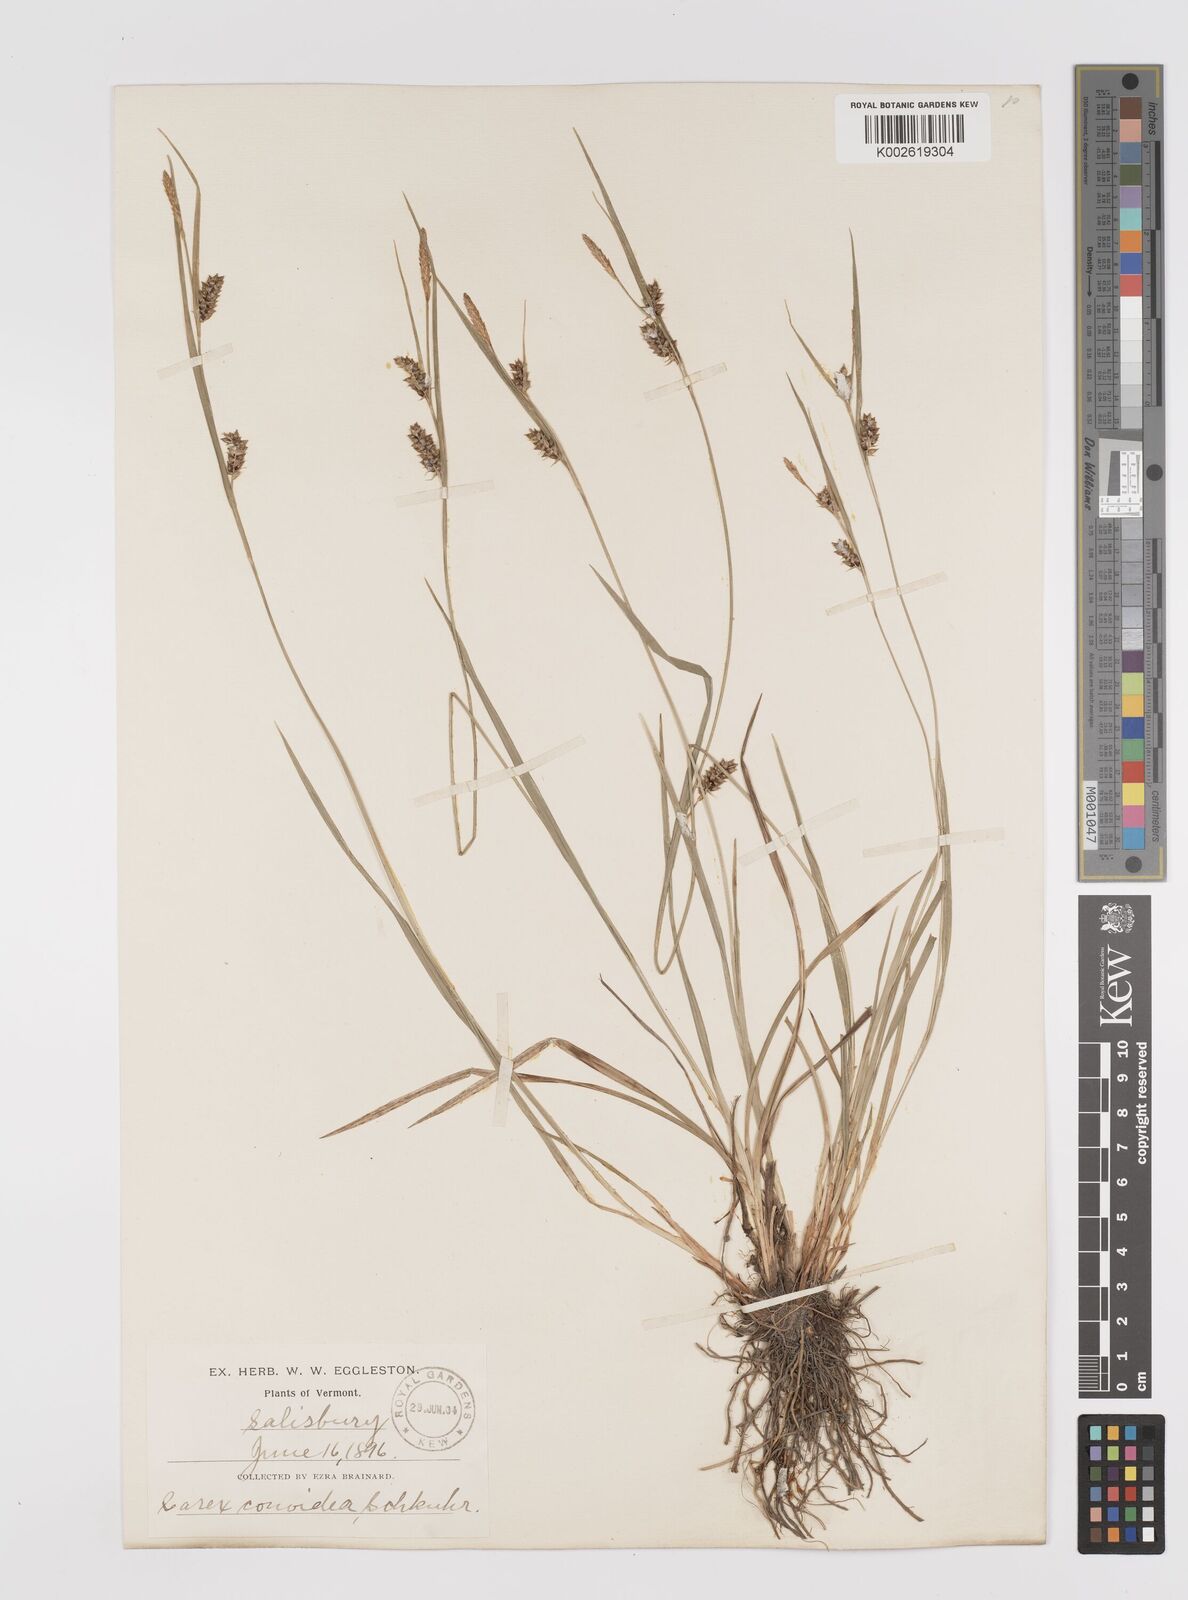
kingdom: Plantae
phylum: Tracheophyta
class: Liliopsida
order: Poales
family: Cyperaceae
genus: Carex
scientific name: Carex conoidea
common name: Cone shaped sedge
